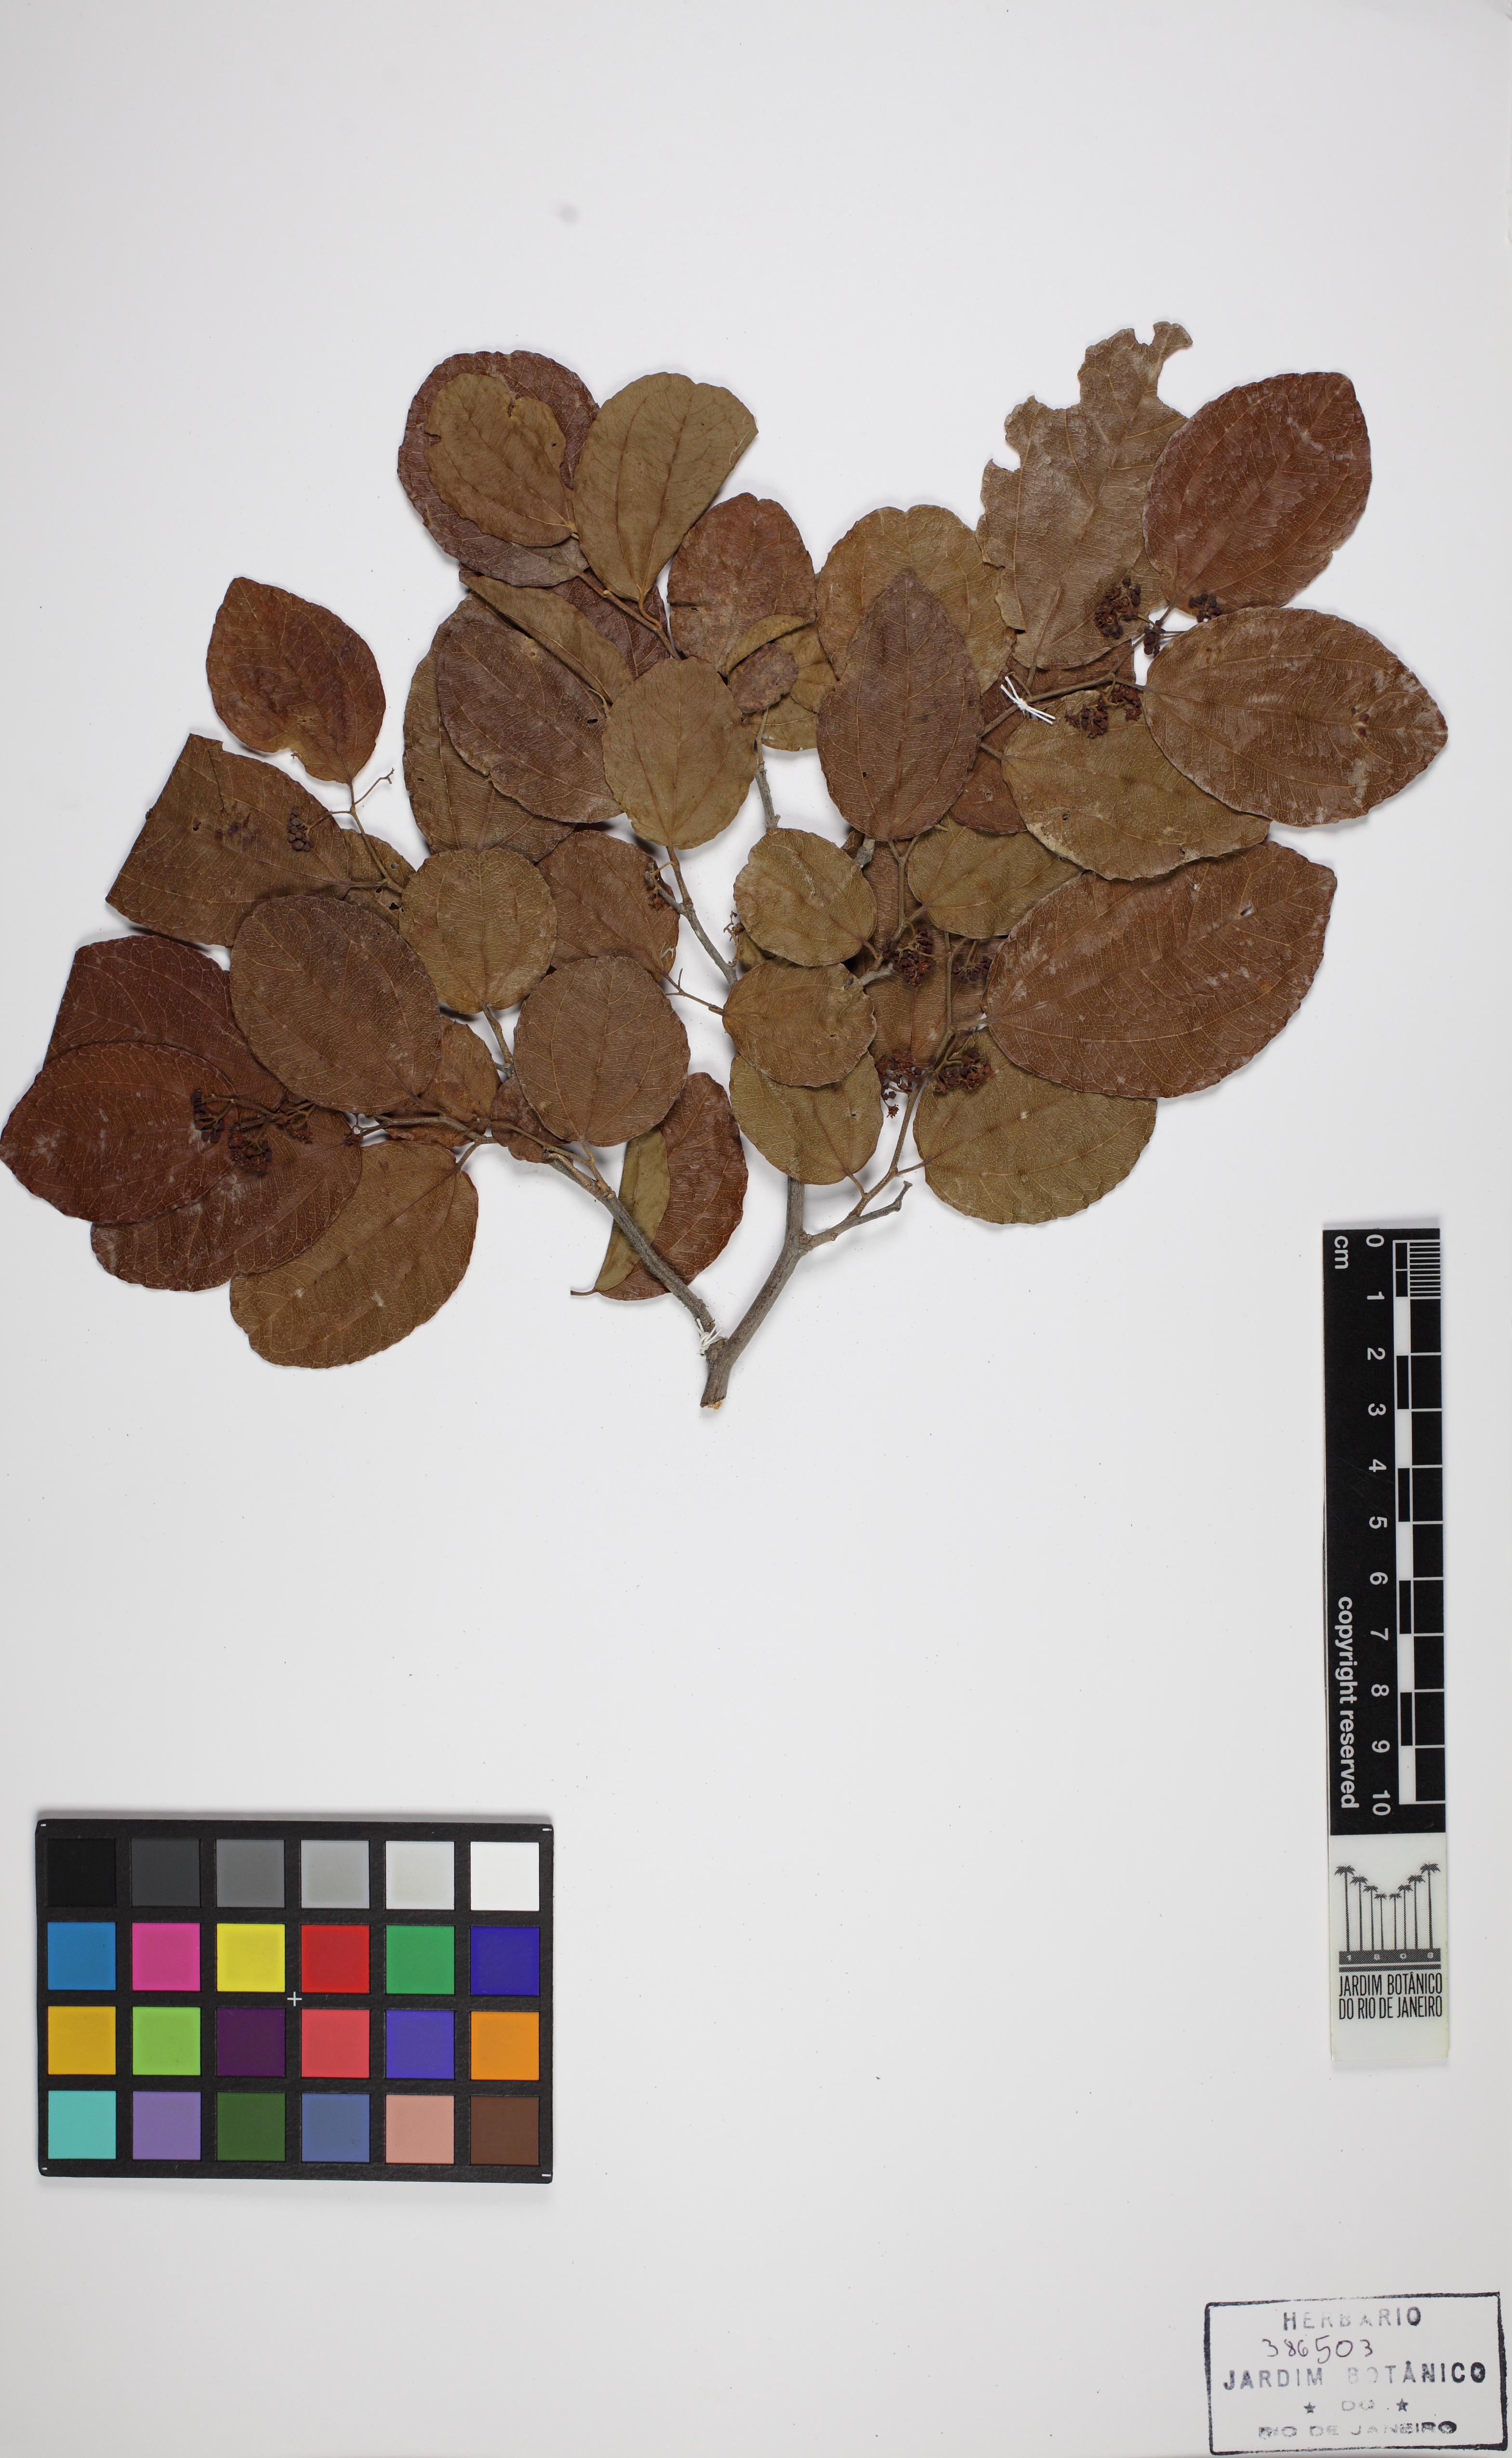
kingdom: Plantae
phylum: Tracheophyta
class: Magnoliopsida
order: Rosales
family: Rhamnaceae
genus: Ziziphus
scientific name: Ziziphus
